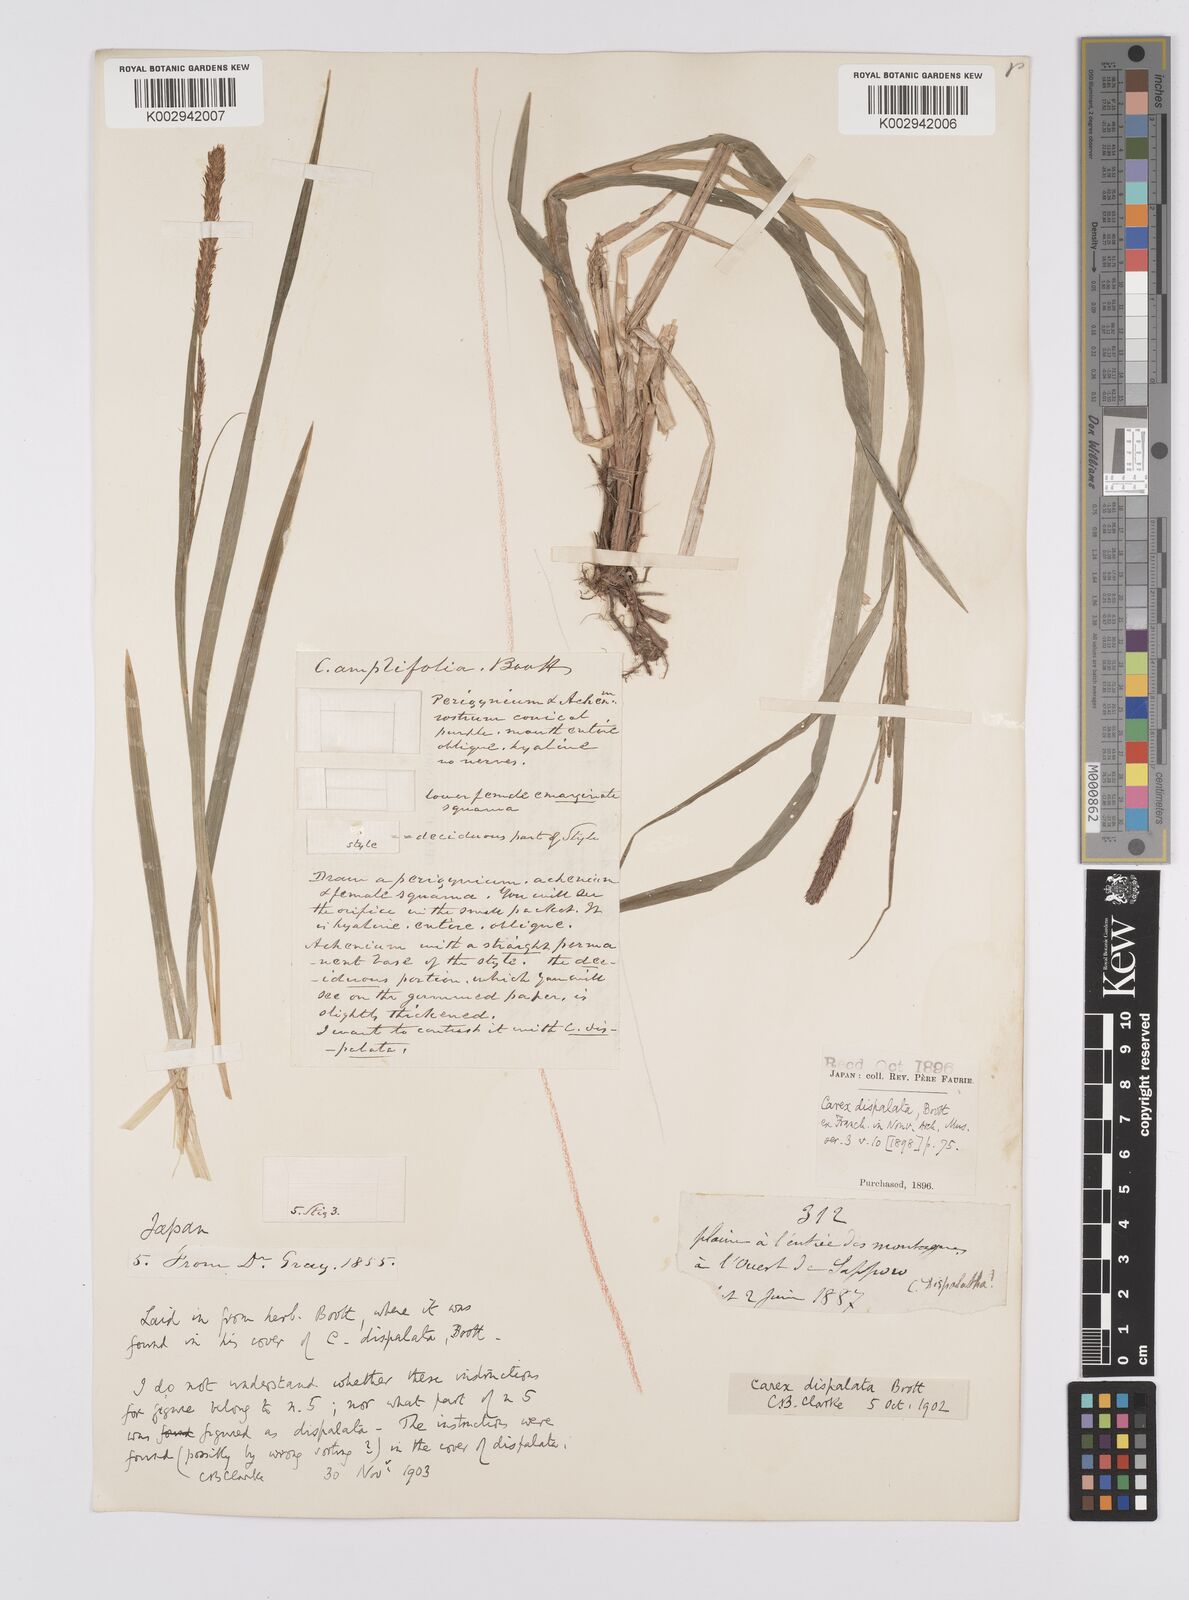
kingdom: Plantae
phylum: Tracheophyta
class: Liliopsida
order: Poales
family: Cyperaceae
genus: Carex
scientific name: Carex dispalata
